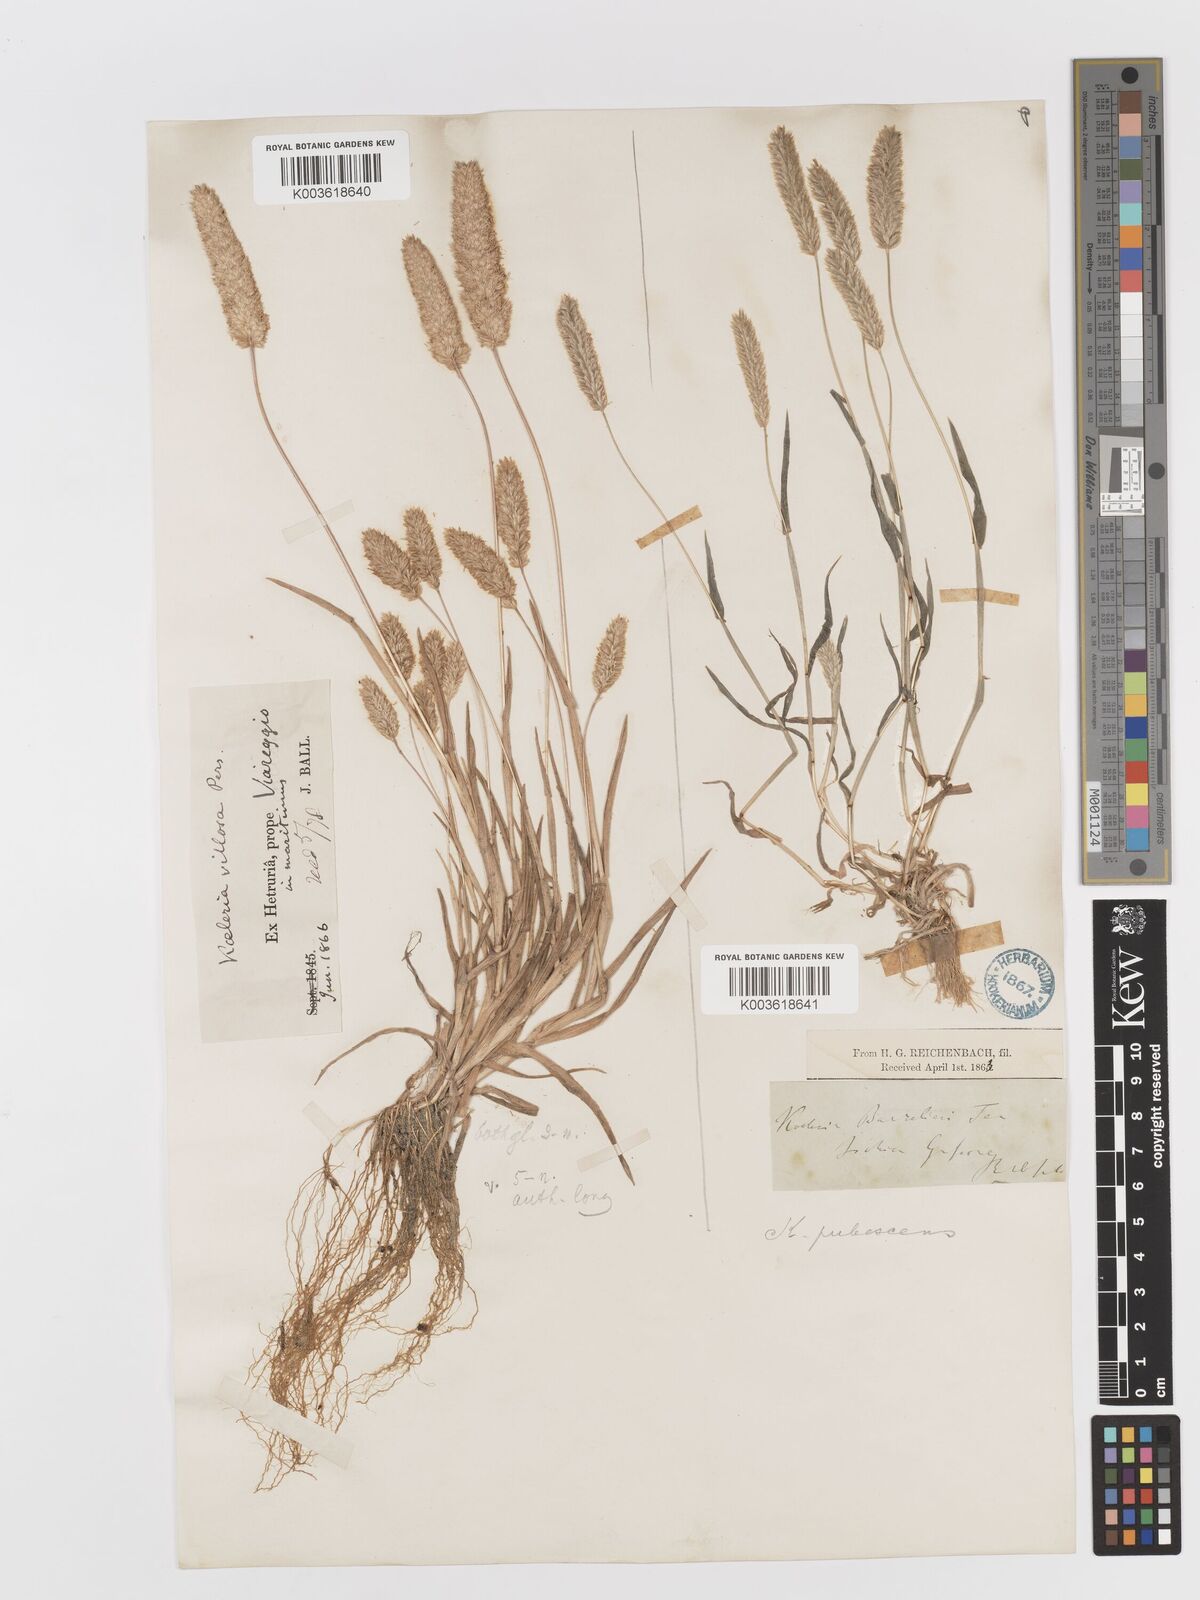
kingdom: Plantae
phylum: Tracheophyta
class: Liliopsida
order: Poales
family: Poaceae
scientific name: Poaceae
